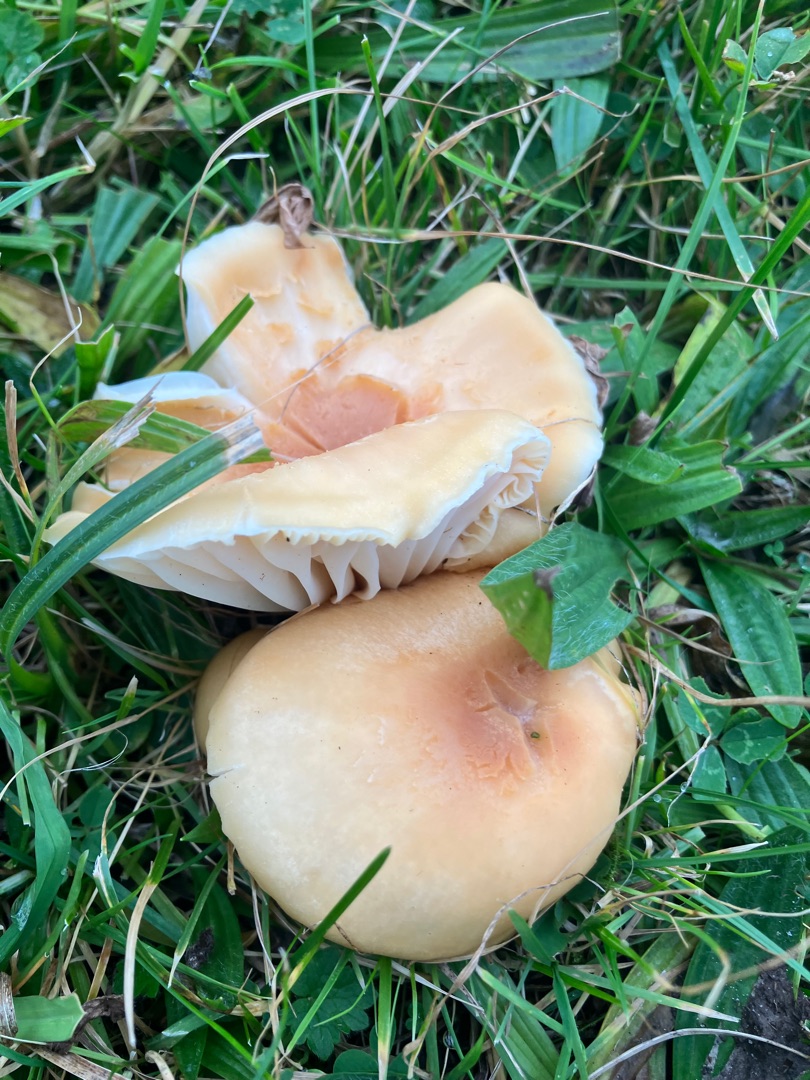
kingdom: Fungi
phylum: Basidiomycota
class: Agaricomycetes
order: Agaricales
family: Hygrophoraceae
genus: Cuphophyllus
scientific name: Cuphophyllus pratensis
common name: Eng-vokshat
